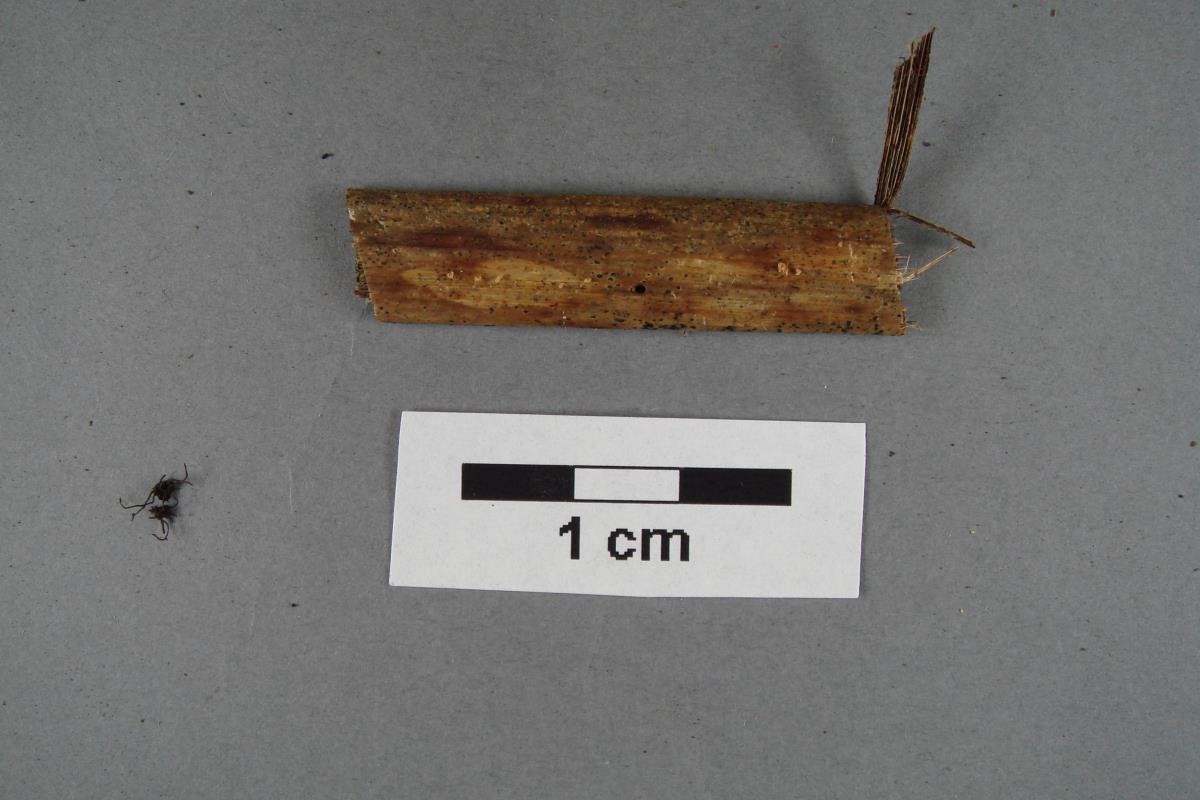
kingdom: Fungi
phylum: Basidiomycota
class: Agaricomycetes
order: Agaricales
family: Marasmiaceae
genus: Marasmius
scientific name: Marasmius
